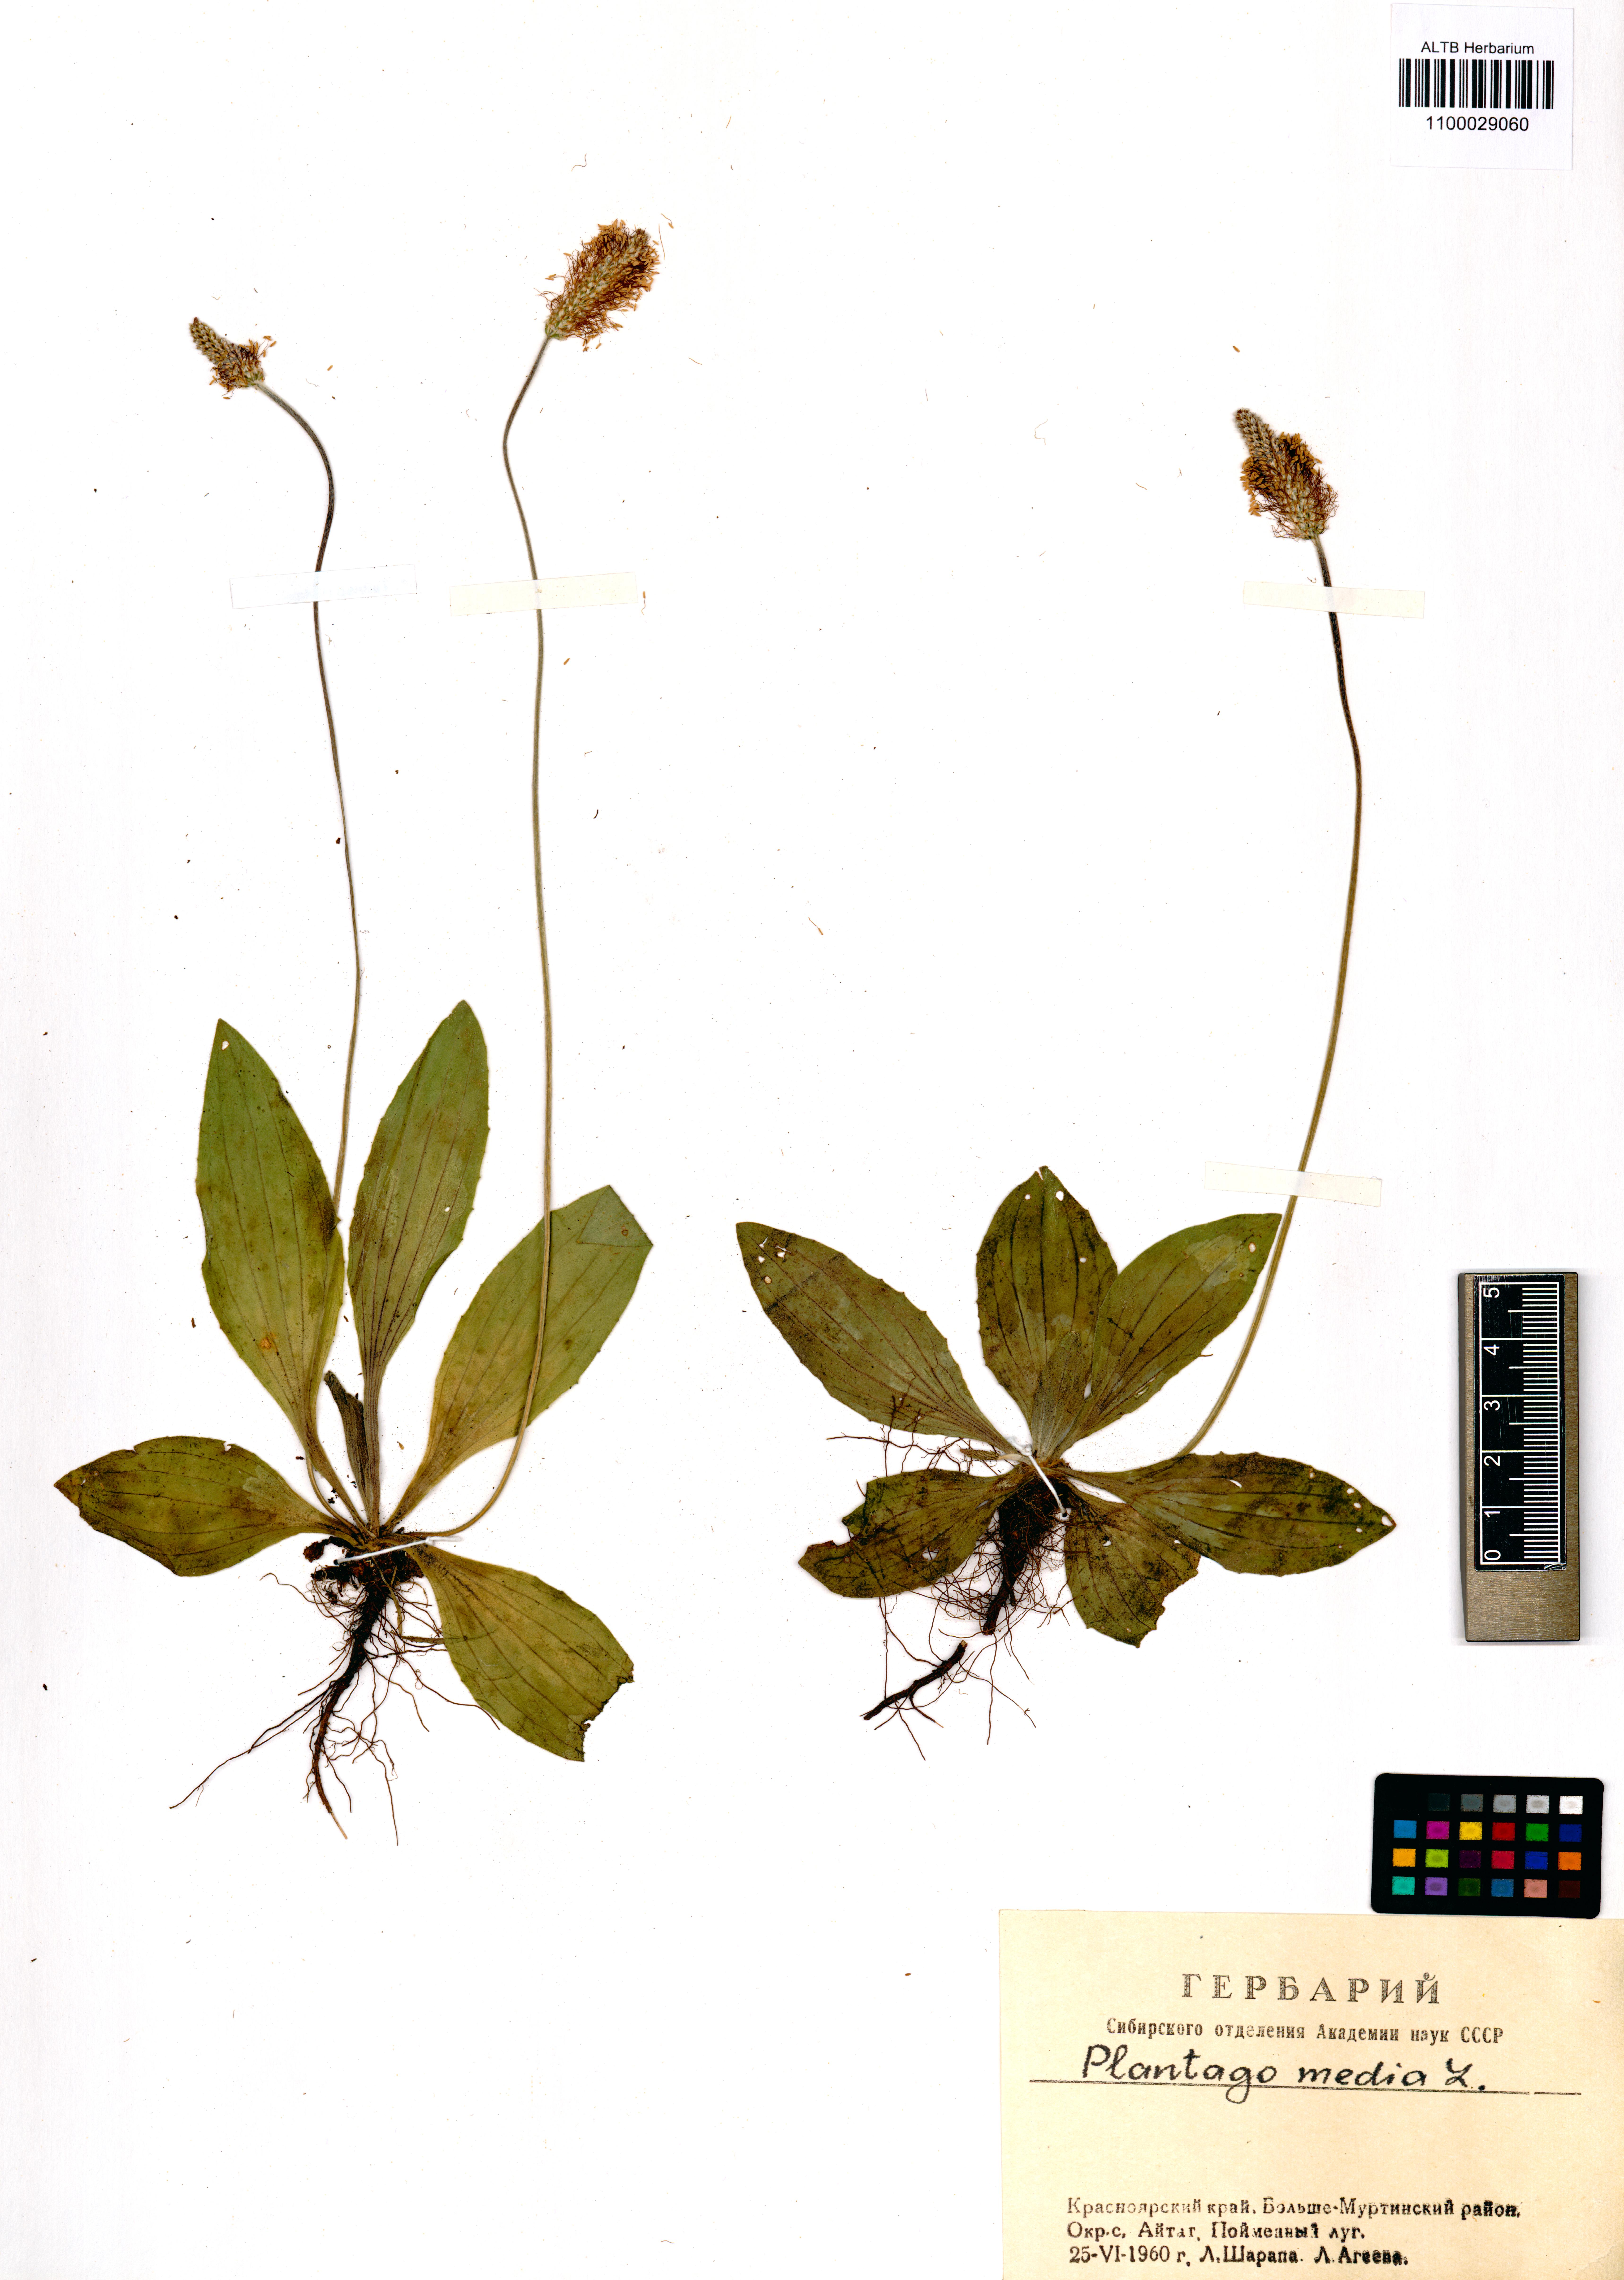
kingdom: Plantae
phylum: Tracheophyta
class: Magnoliopsida
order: Lamiales
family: Plantaginaceae
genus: Plantago
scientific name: Plantago media
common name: Hoary plantain
